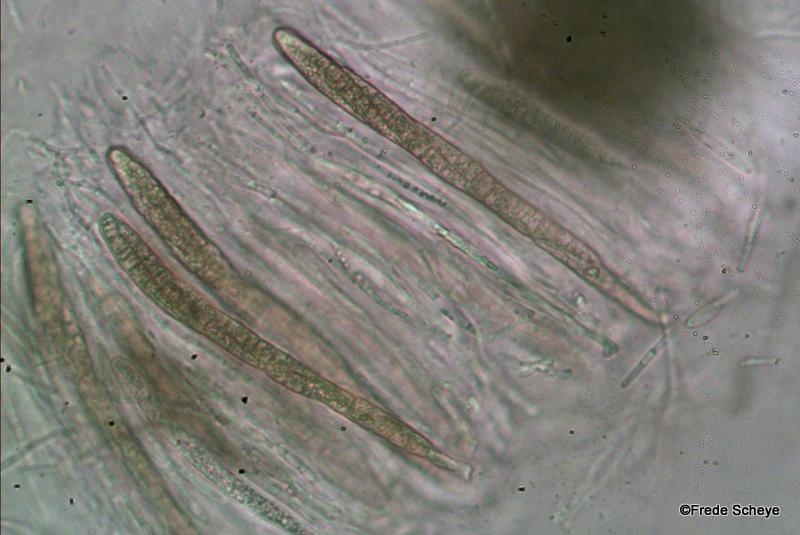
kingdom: Fungi
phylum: Ascomycota
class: Dothideomycetes
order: Pleosporales
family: Leptosphaeriaceae
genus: Leptosphaeria
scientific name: Leptosphaeria acuta
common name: spids kulkegle
